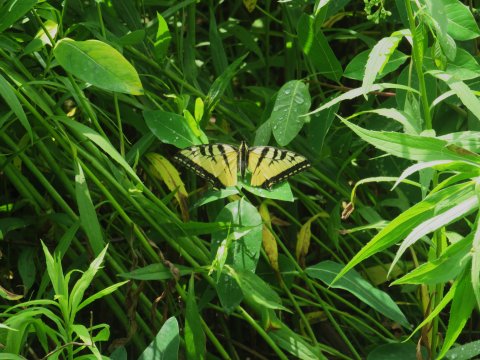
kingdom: Animalia
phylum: Arthropoda
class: Insecta
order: Lepidoptera
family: Papilionidae
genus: Pterourus
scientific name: Pterourus glaucus
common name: Eastern Tiger Swallowtail
